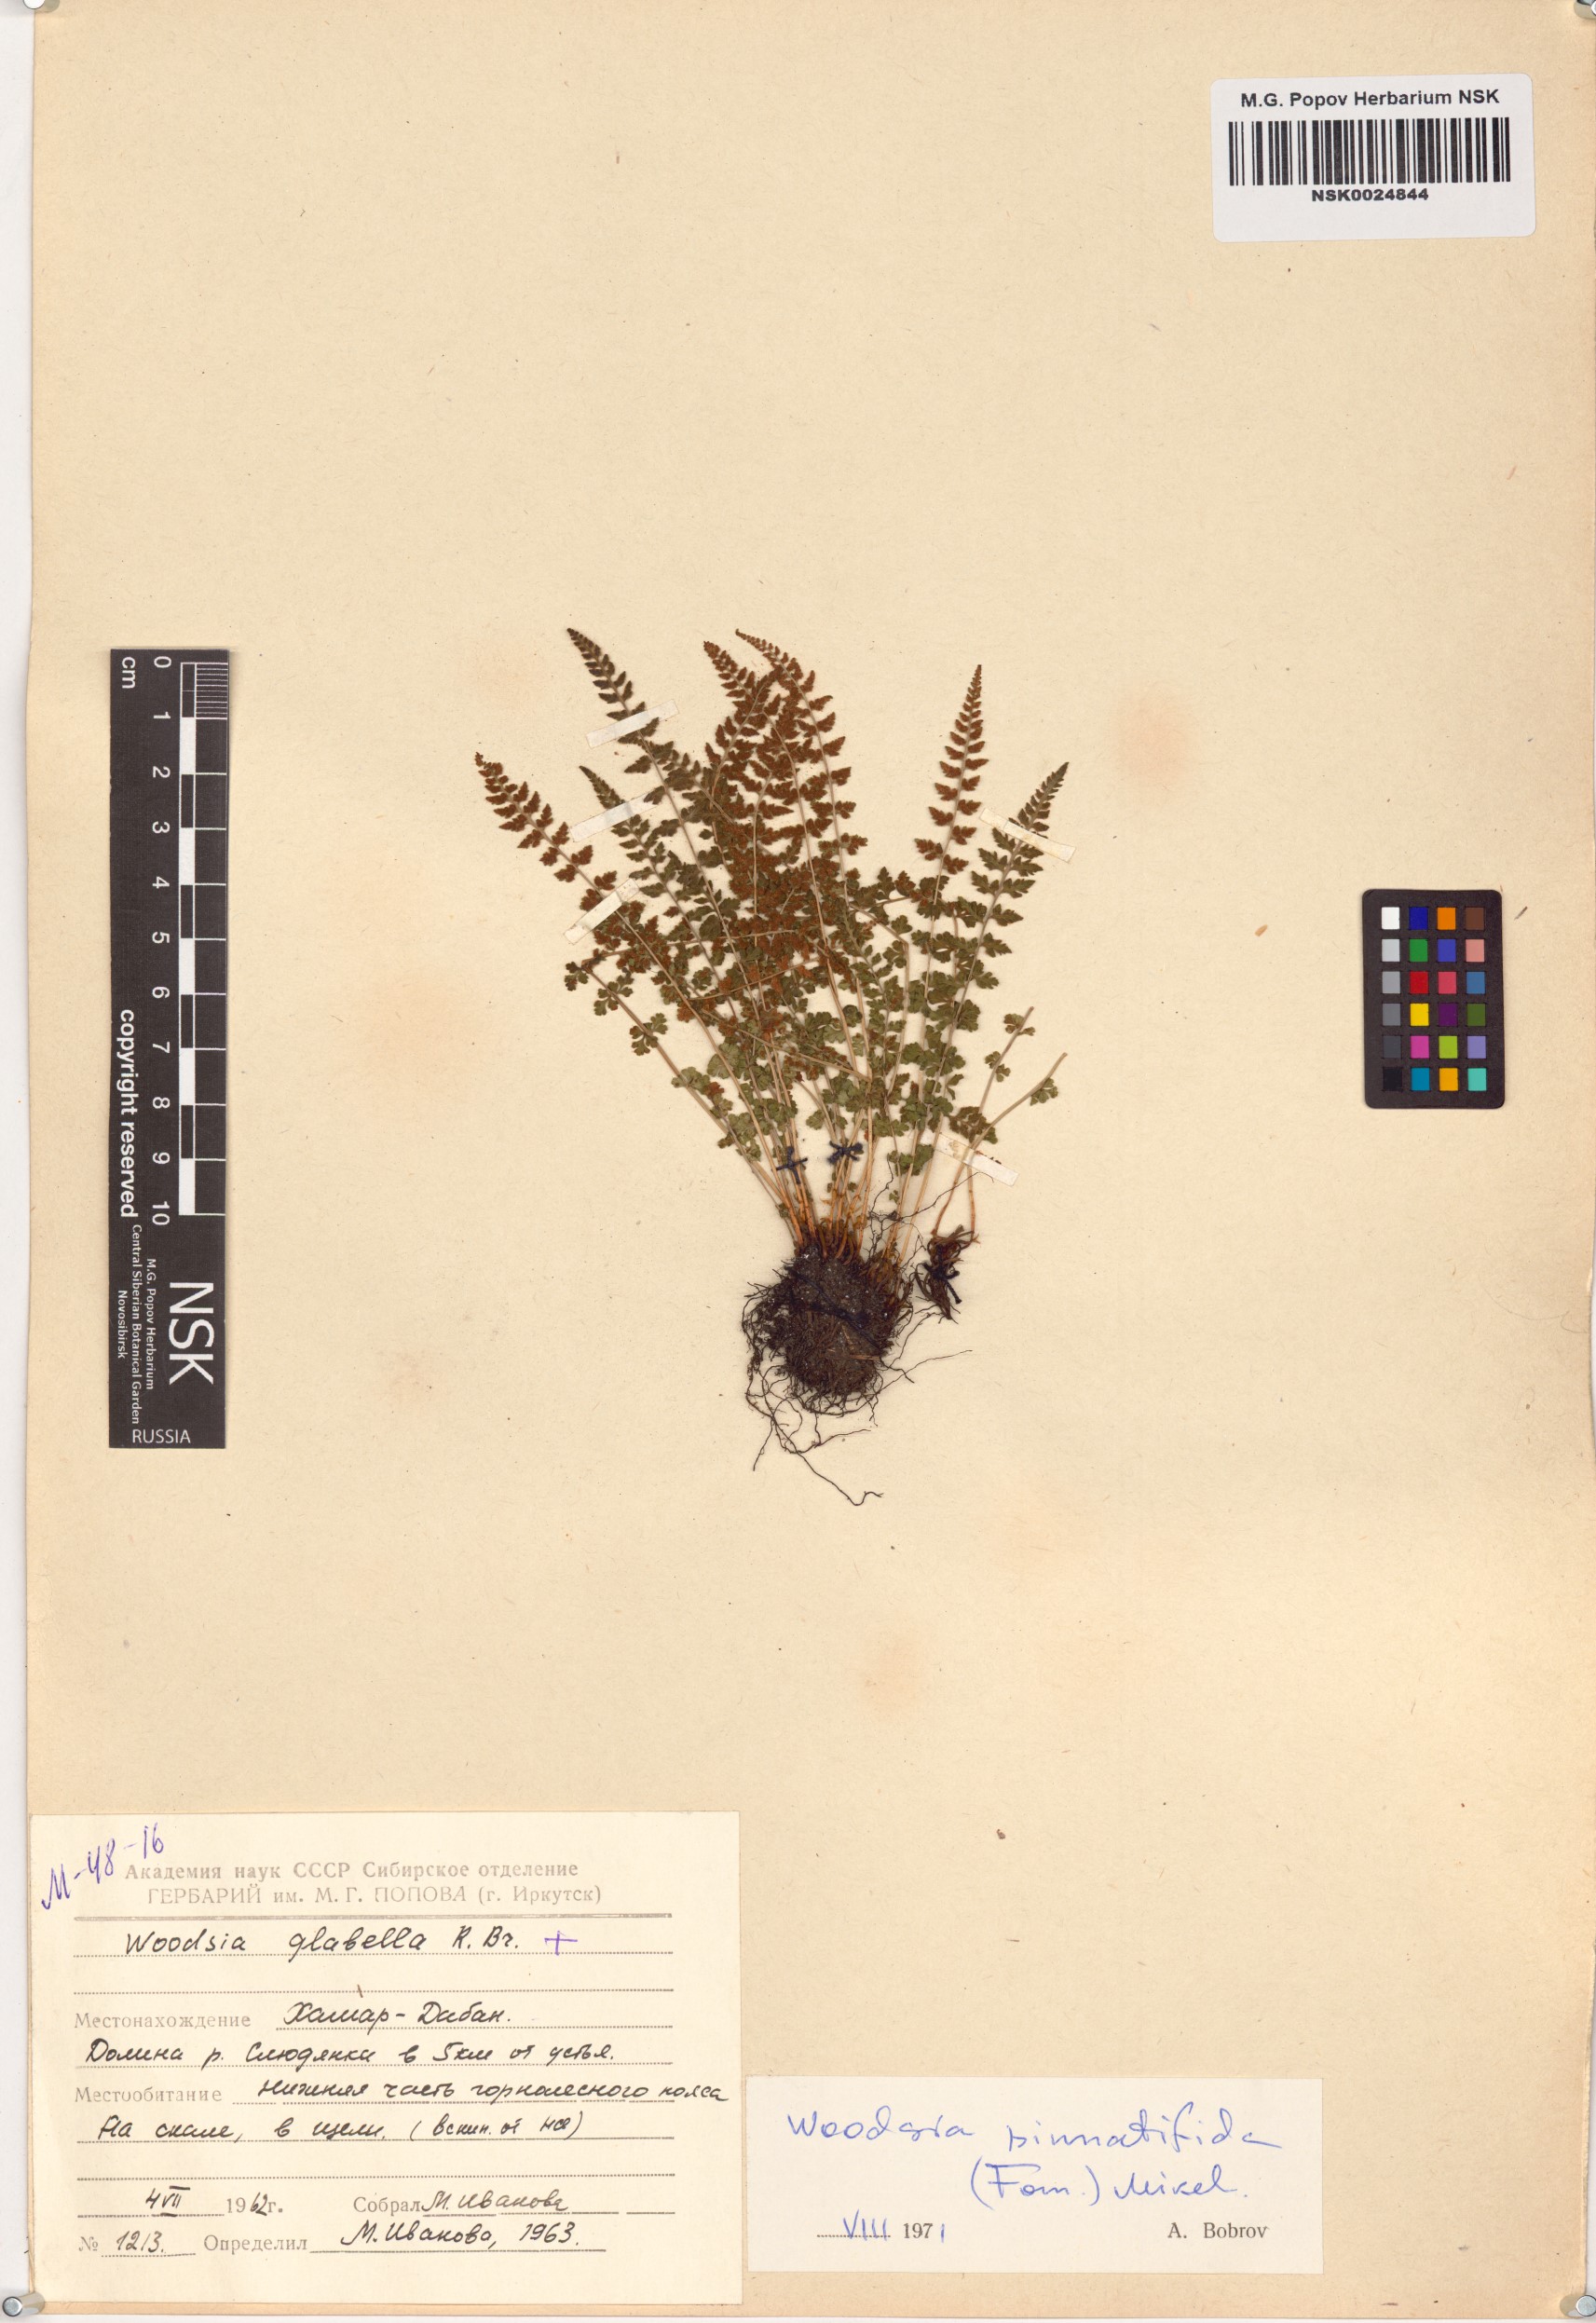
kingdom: Plantae
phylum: Tracheophyta
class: Polypodiopsida
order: Polypodiales
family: Woodsiaceae
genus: Woodsia
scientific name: Woodsia pulchella
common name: Graceful woodsia
